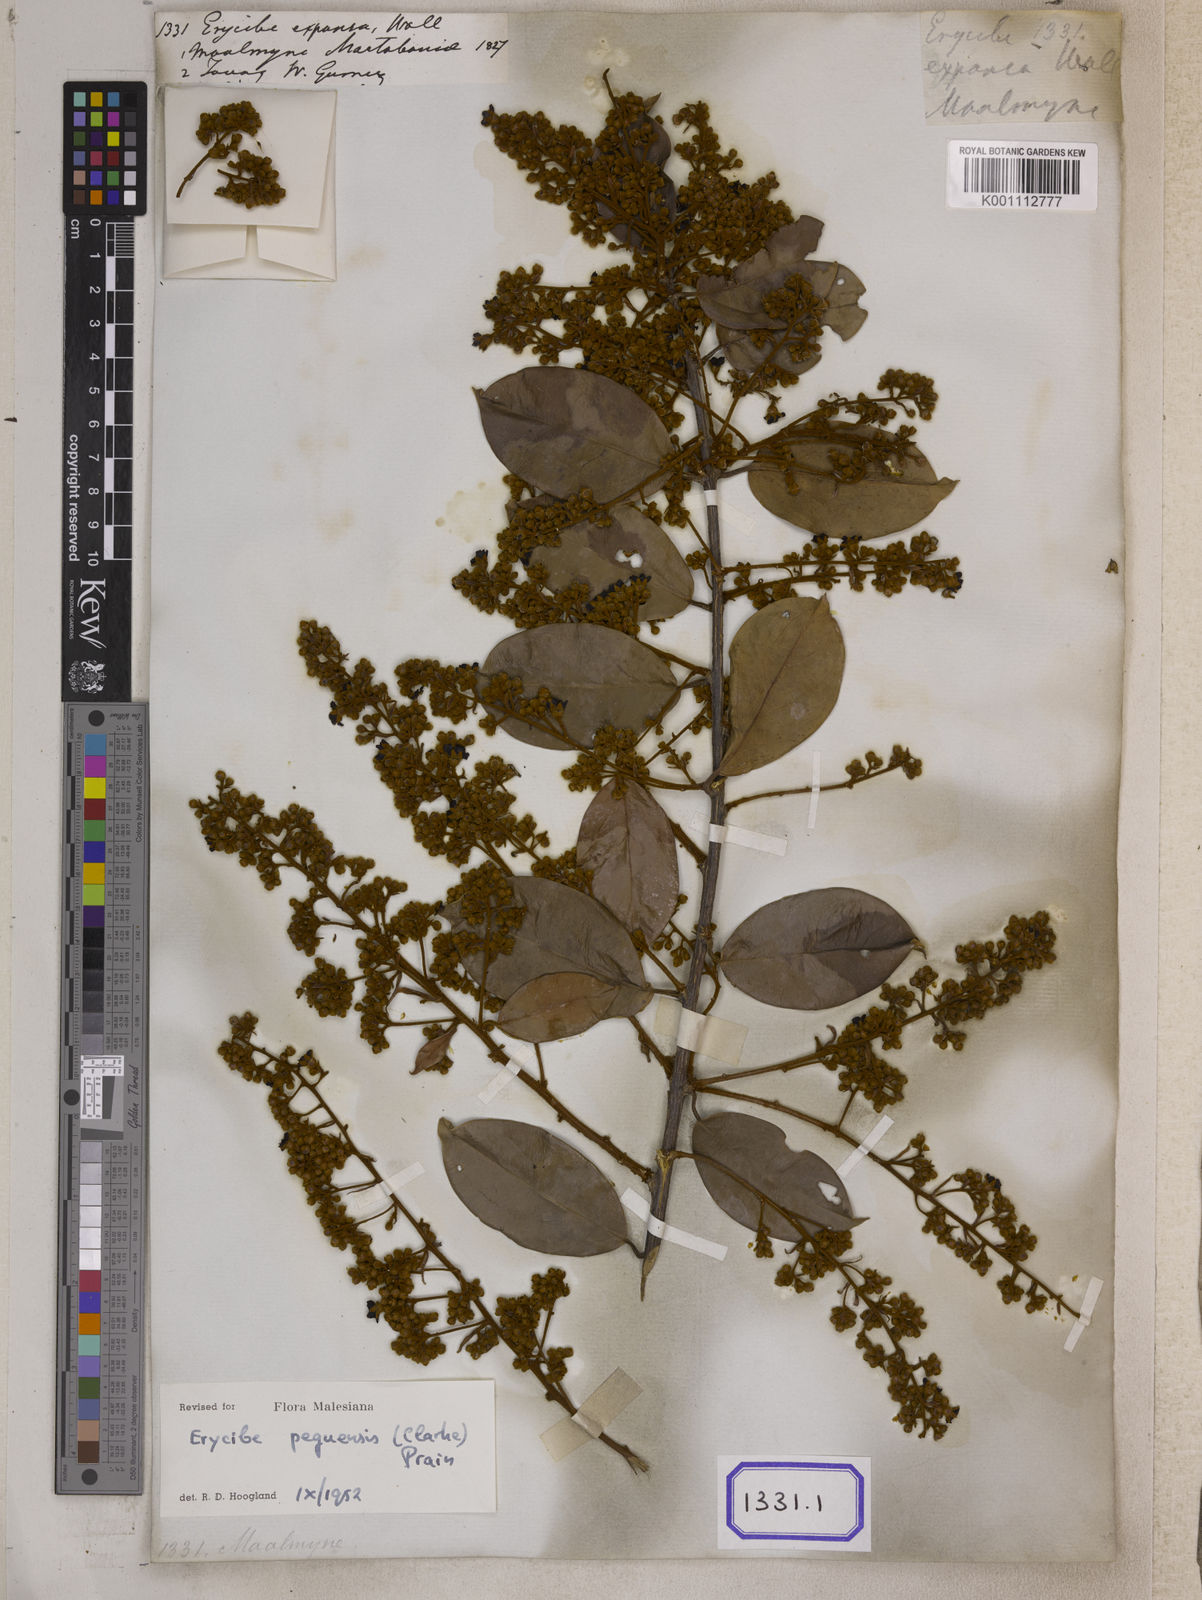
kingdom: Plantae
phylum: Tracheophyta
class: Magnoliopsida
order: Solanales
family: Convolvulaceae
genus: Erycibe
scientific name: Erycibe
